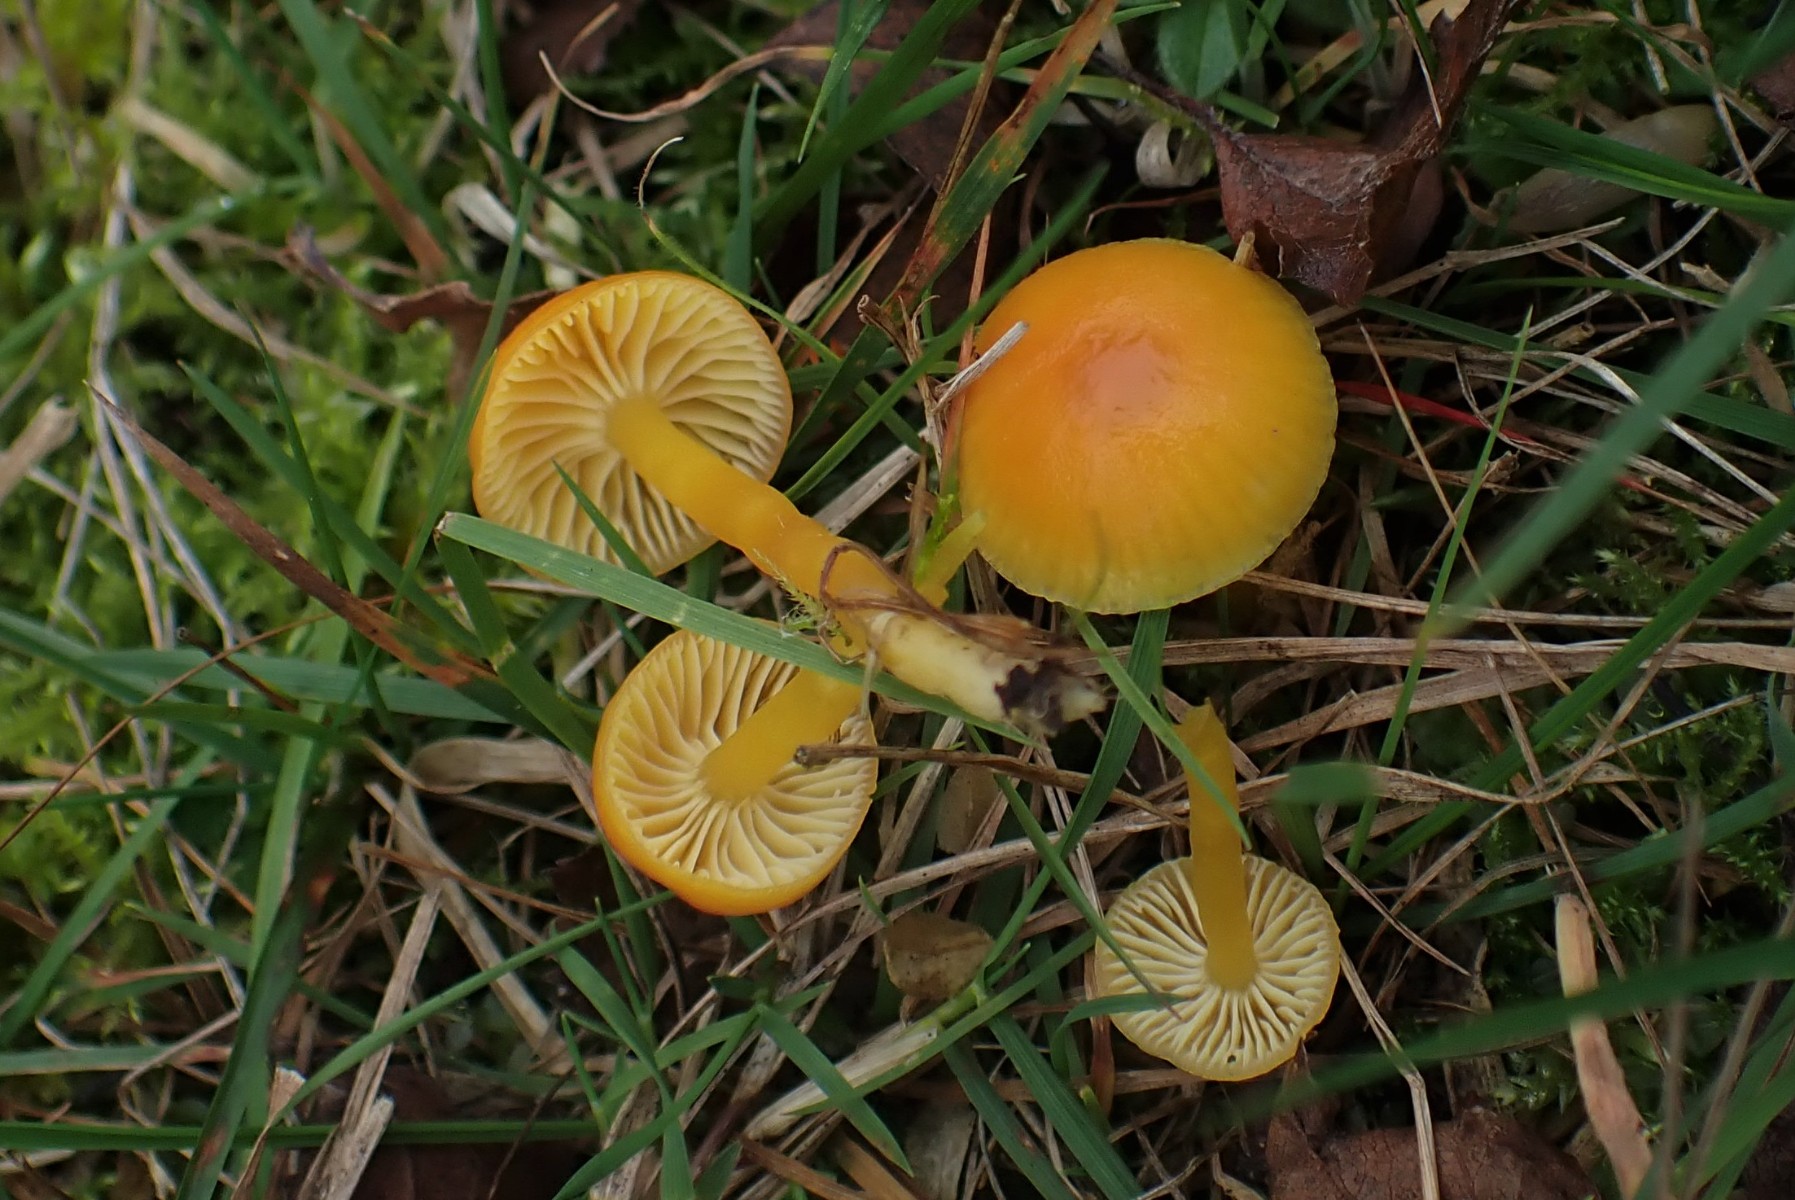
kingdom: Fungi
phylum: Basidiomycota
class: Agaricomycetes
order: Agaricales
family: Hygrophoraceae
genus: Hygrocybe
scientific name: Hygrocybe ceracea
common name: voksgul vokshat
